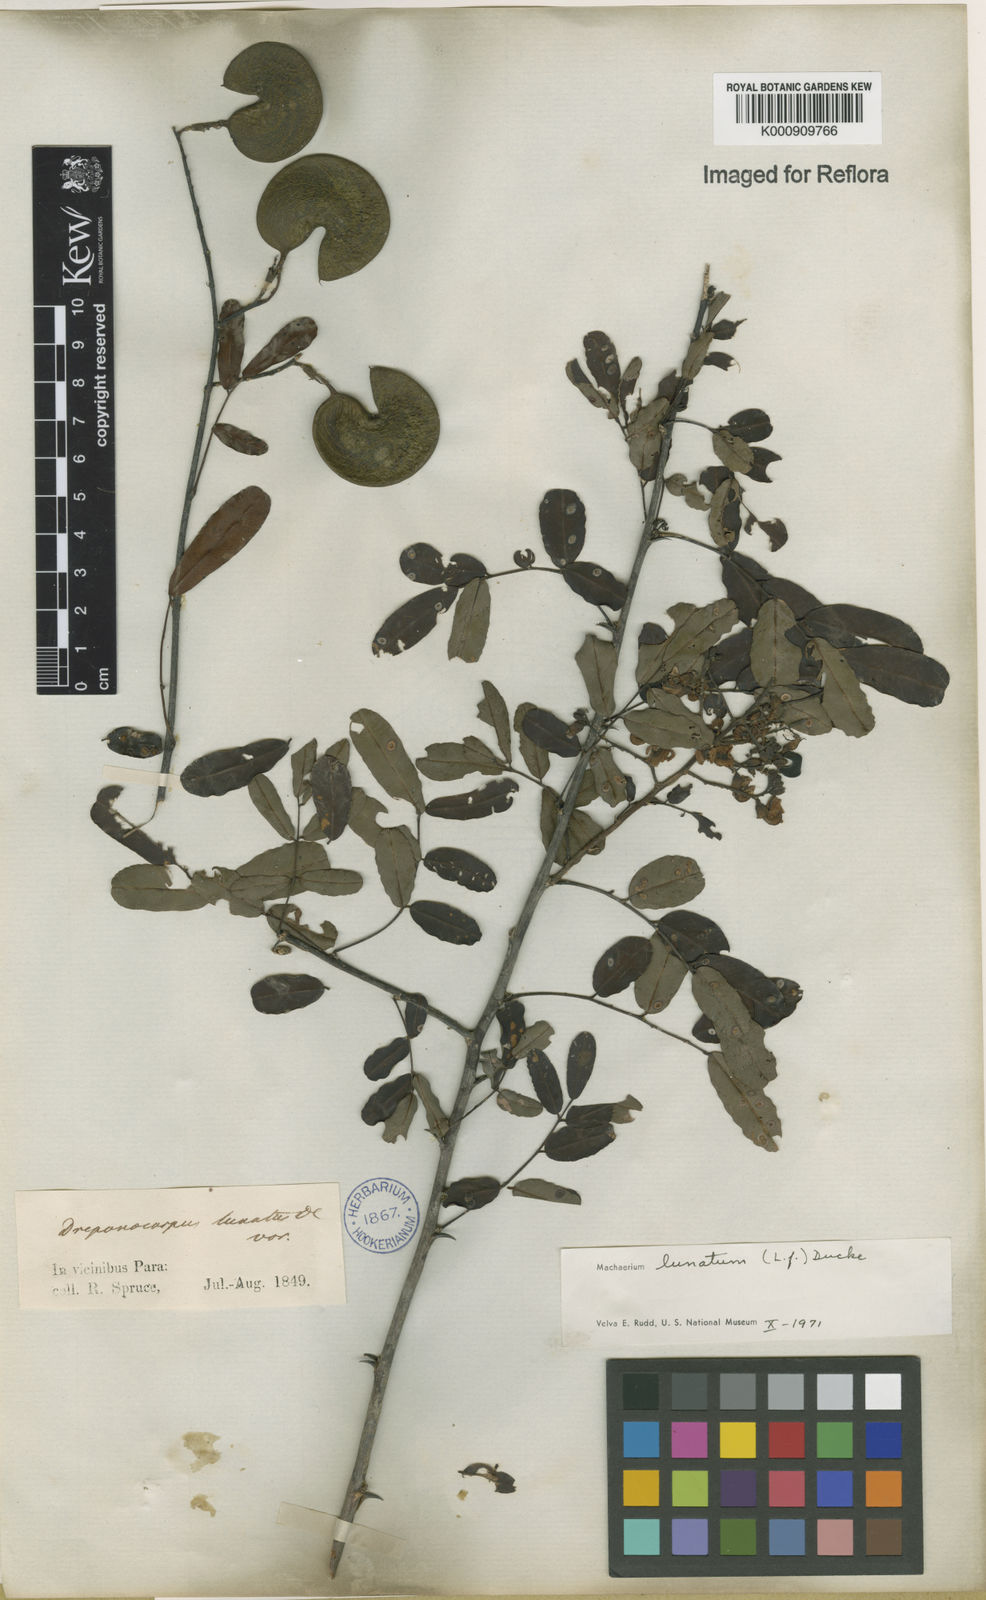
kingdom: Plantae
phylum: Tracheophyta
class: Magnoliopsida
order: Fabales
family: Fabaceae
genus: Machaerium
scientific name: Machaerium lunatum
